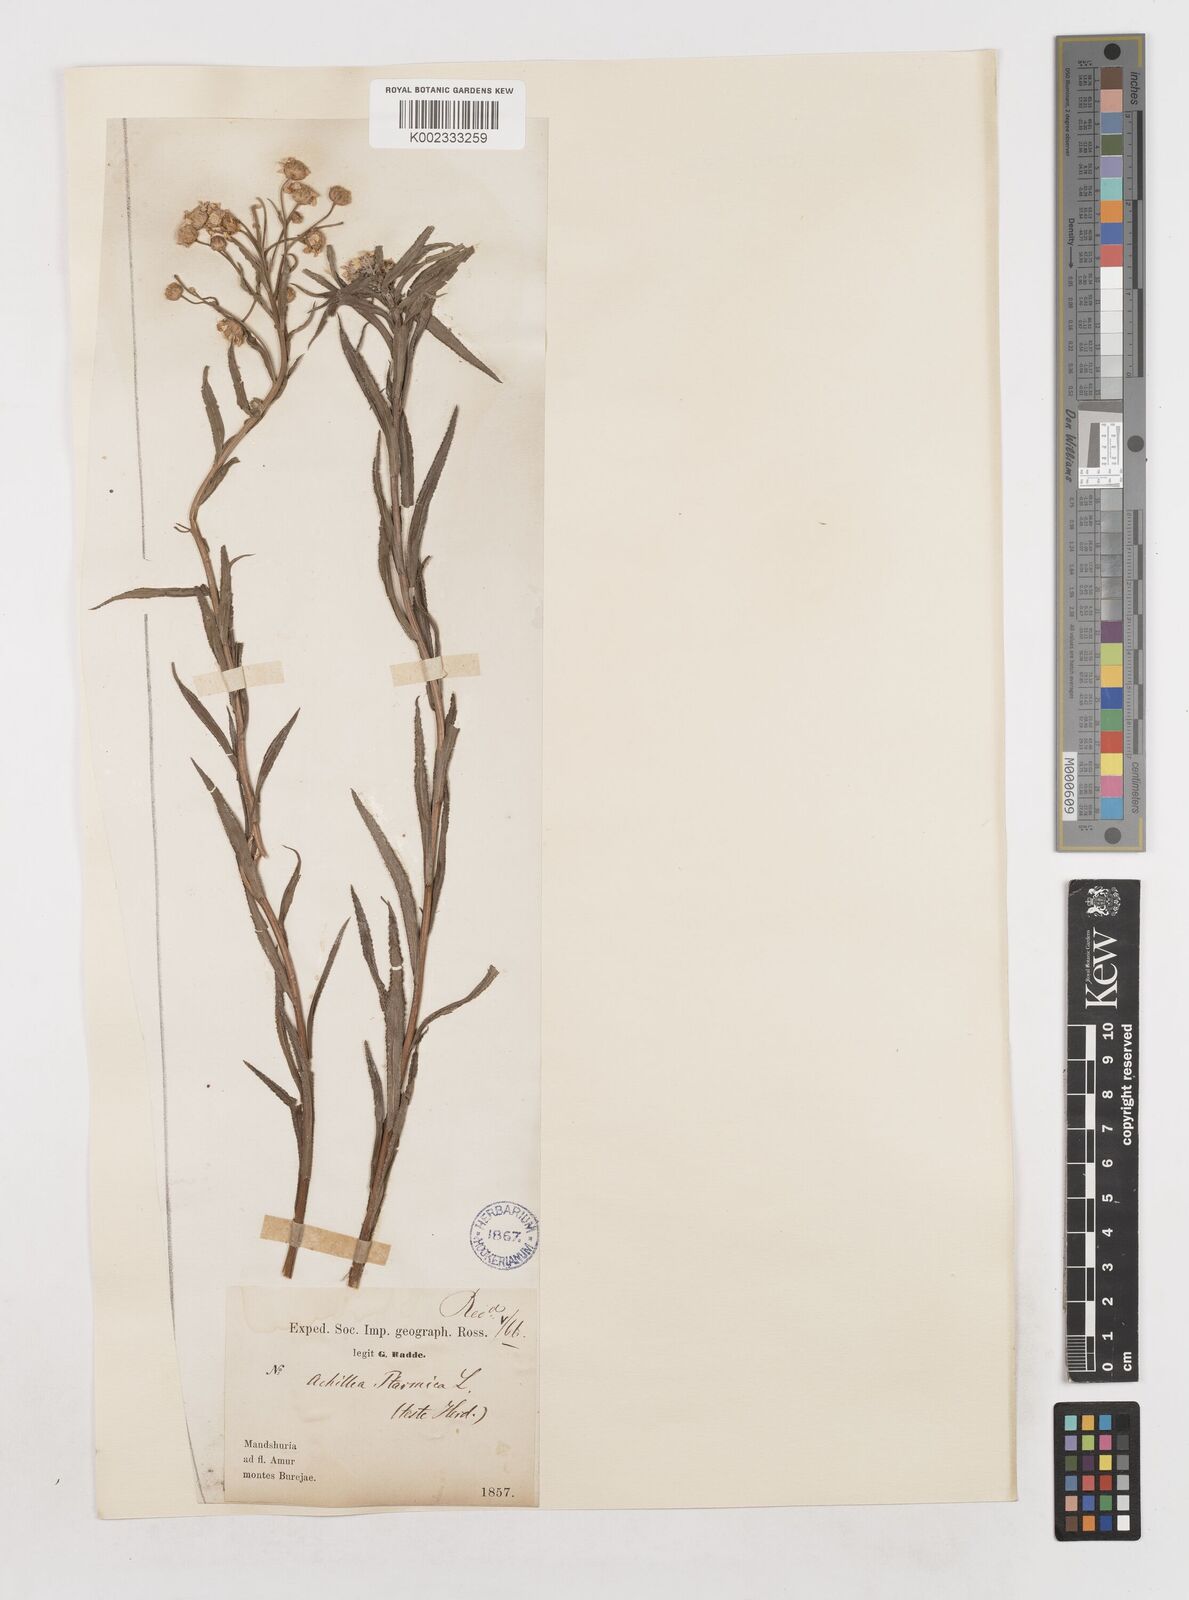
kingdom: Plantae
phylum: Tracheophyta
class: Magnoliopsida
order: Asterales
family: Asteraceae
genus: Achillea
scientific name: Achillea ptarmica
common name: Sneezeweed
